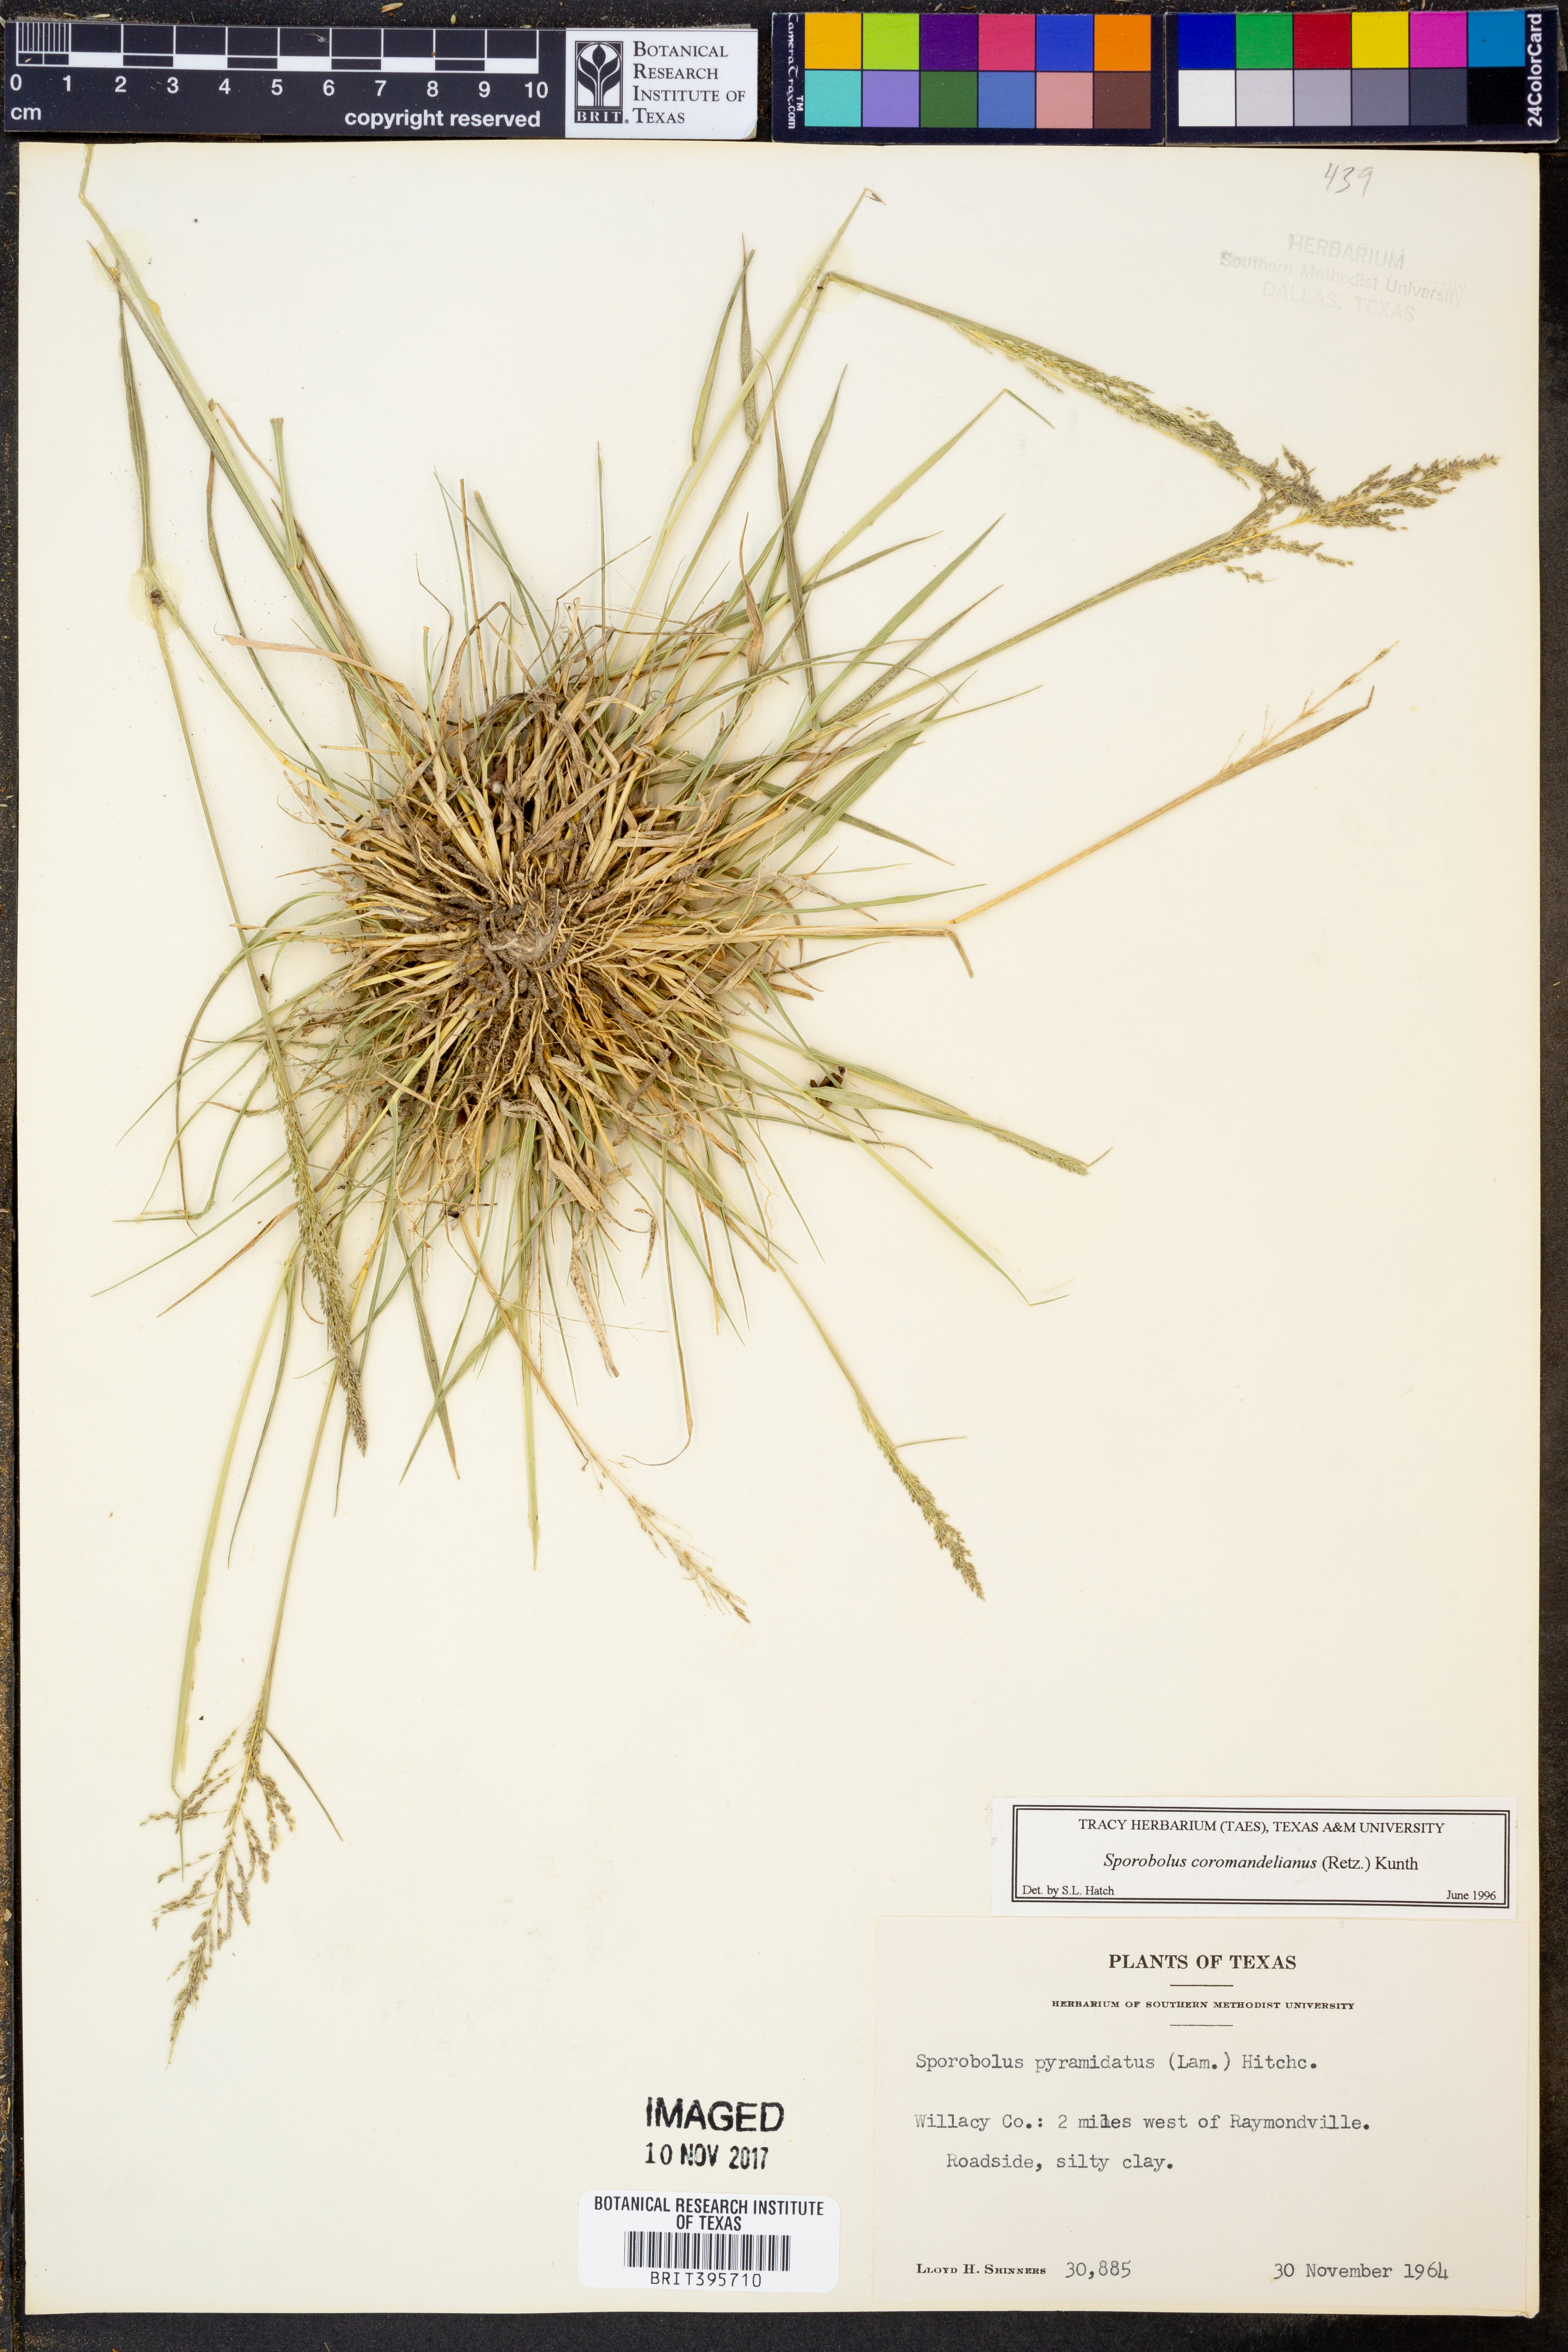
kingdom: Plantae
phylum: Tracheophyta
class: Liliopsida
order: Poales
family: Poaceae
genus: Sporobolus
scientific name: Sporobolus coromandelianus
